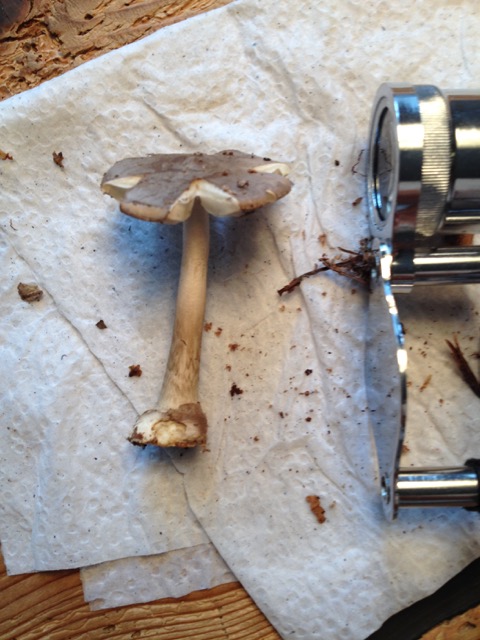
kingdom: Fungi
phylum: Basidiomycota
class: Agaricomycetes
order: Agaricales
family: Amanitaceae
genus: Amanita
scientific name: Amanita porphyria
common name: porfyr-fluesvamp
